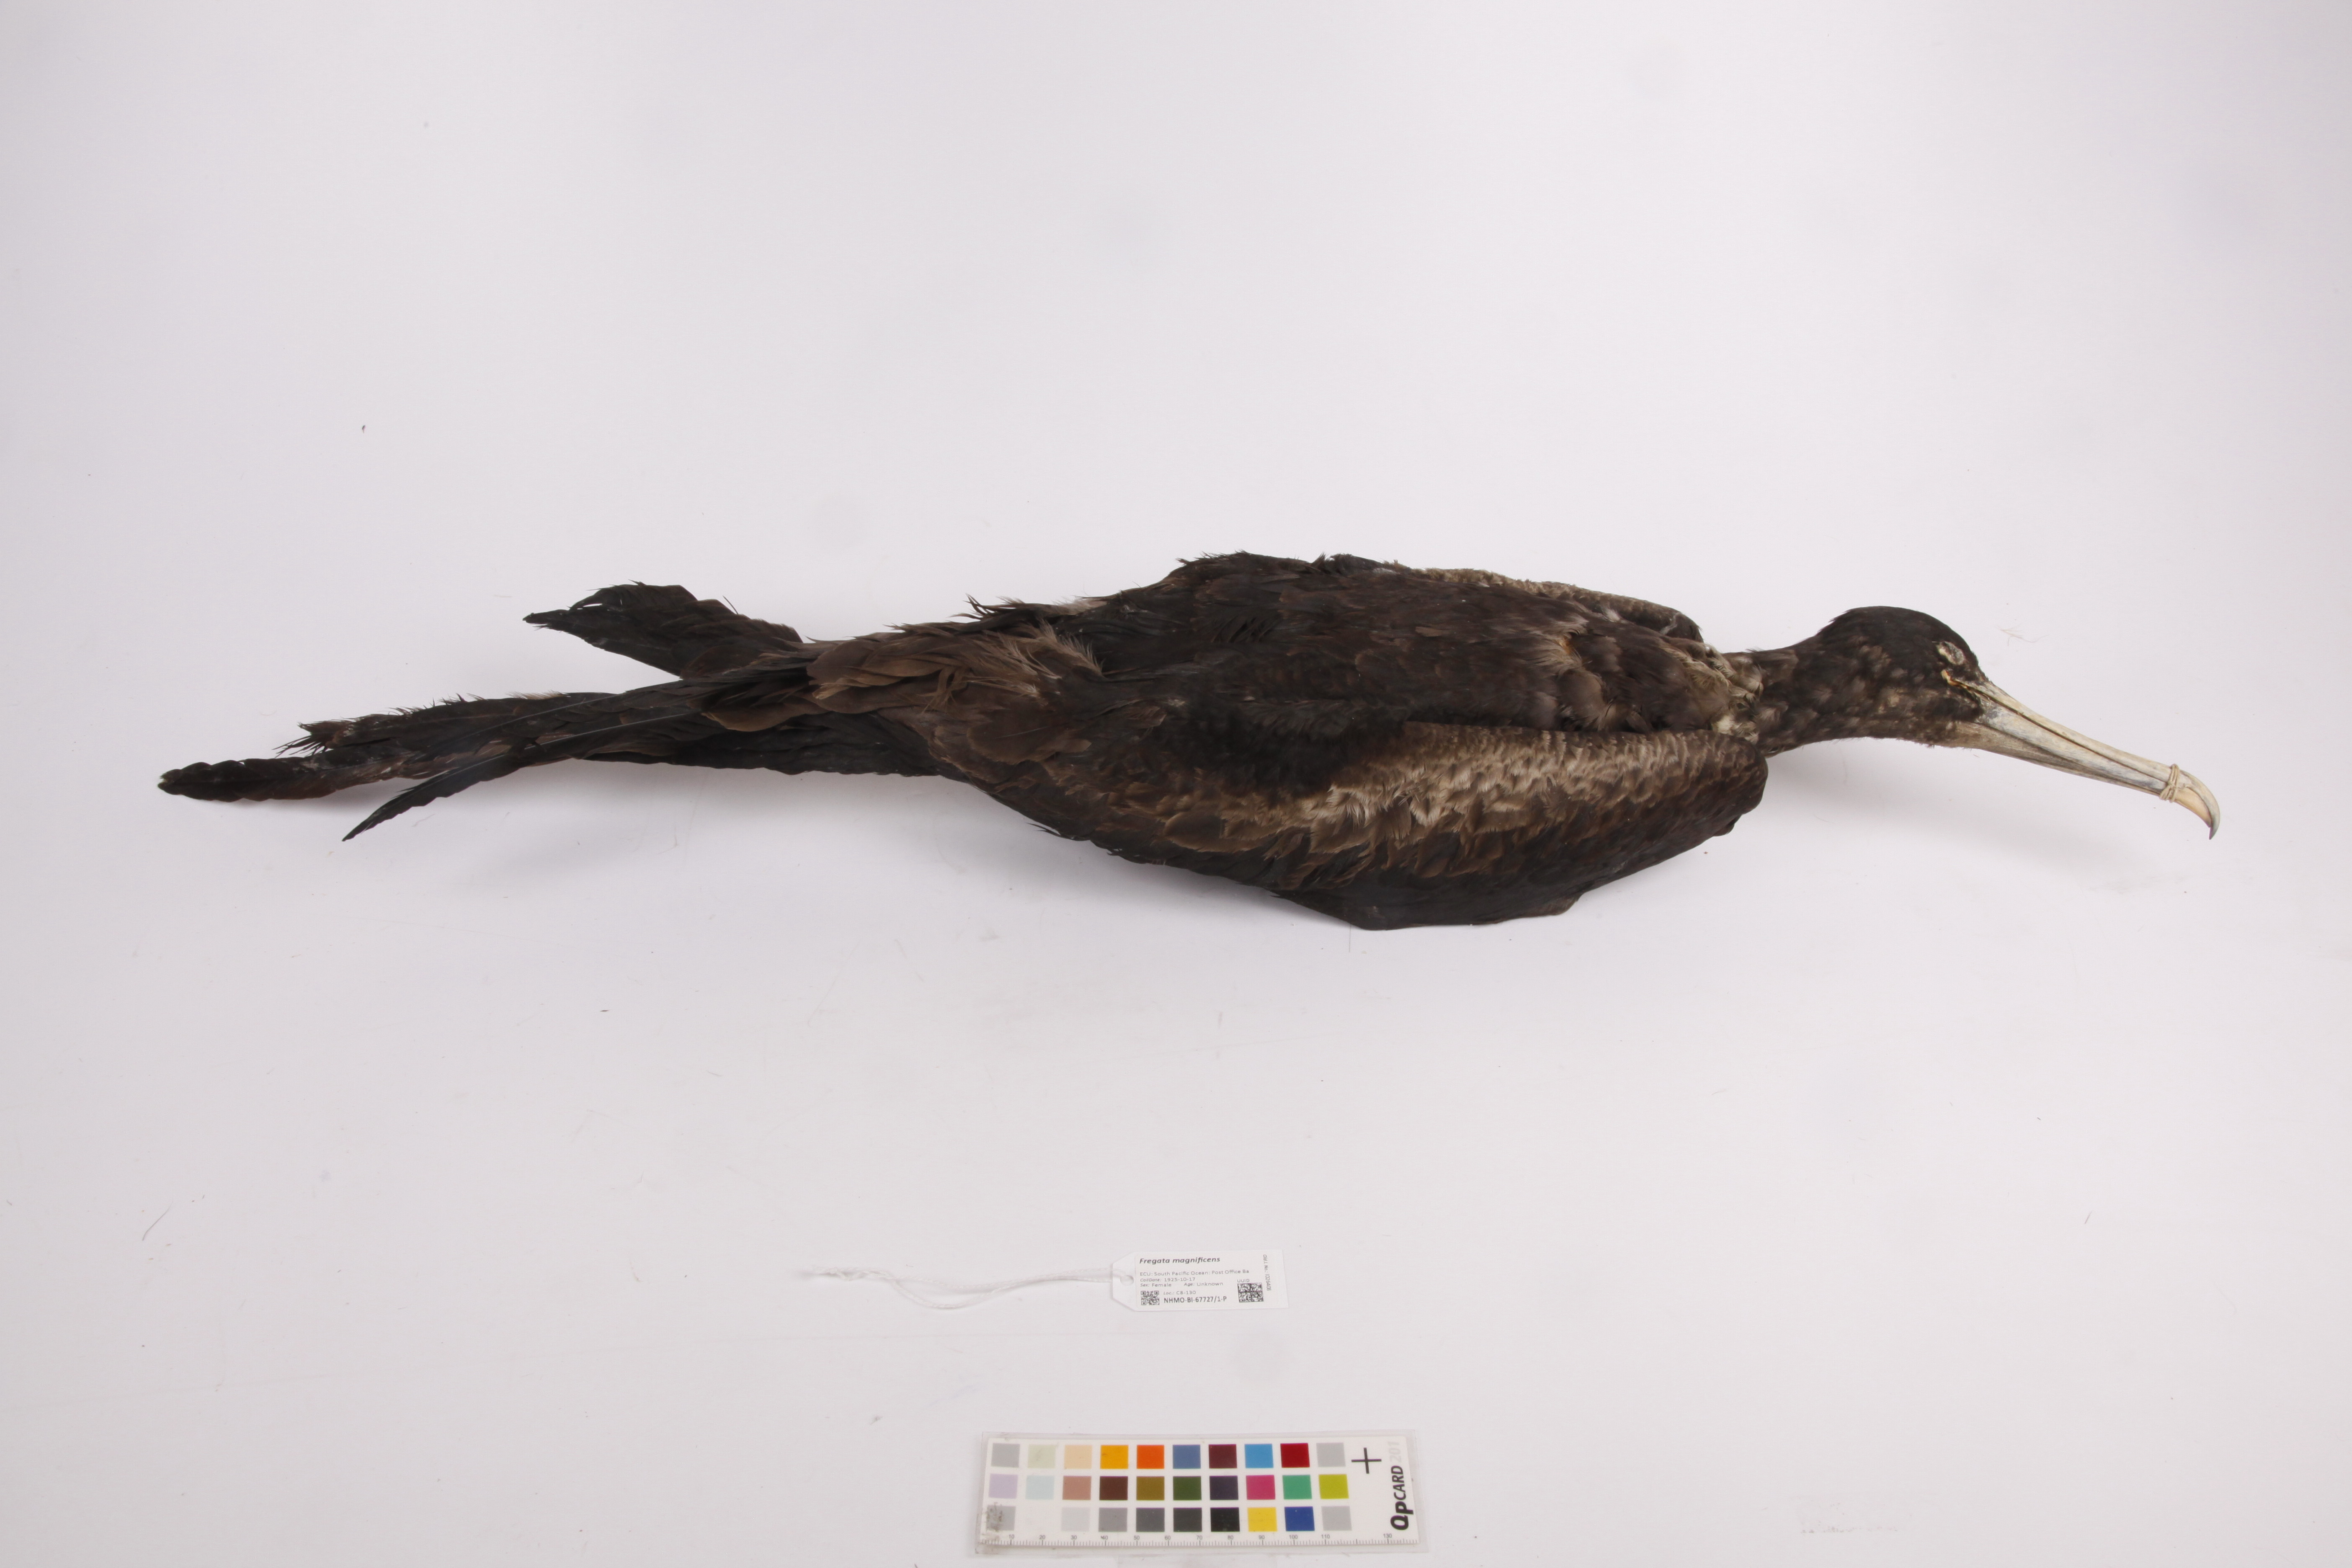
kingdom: Animalia
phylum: Chordata
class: Aves
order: Suliformes
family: Fregatidae
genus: Fregata
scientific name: Fregata magnificens
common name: Magnificent frigatebird
